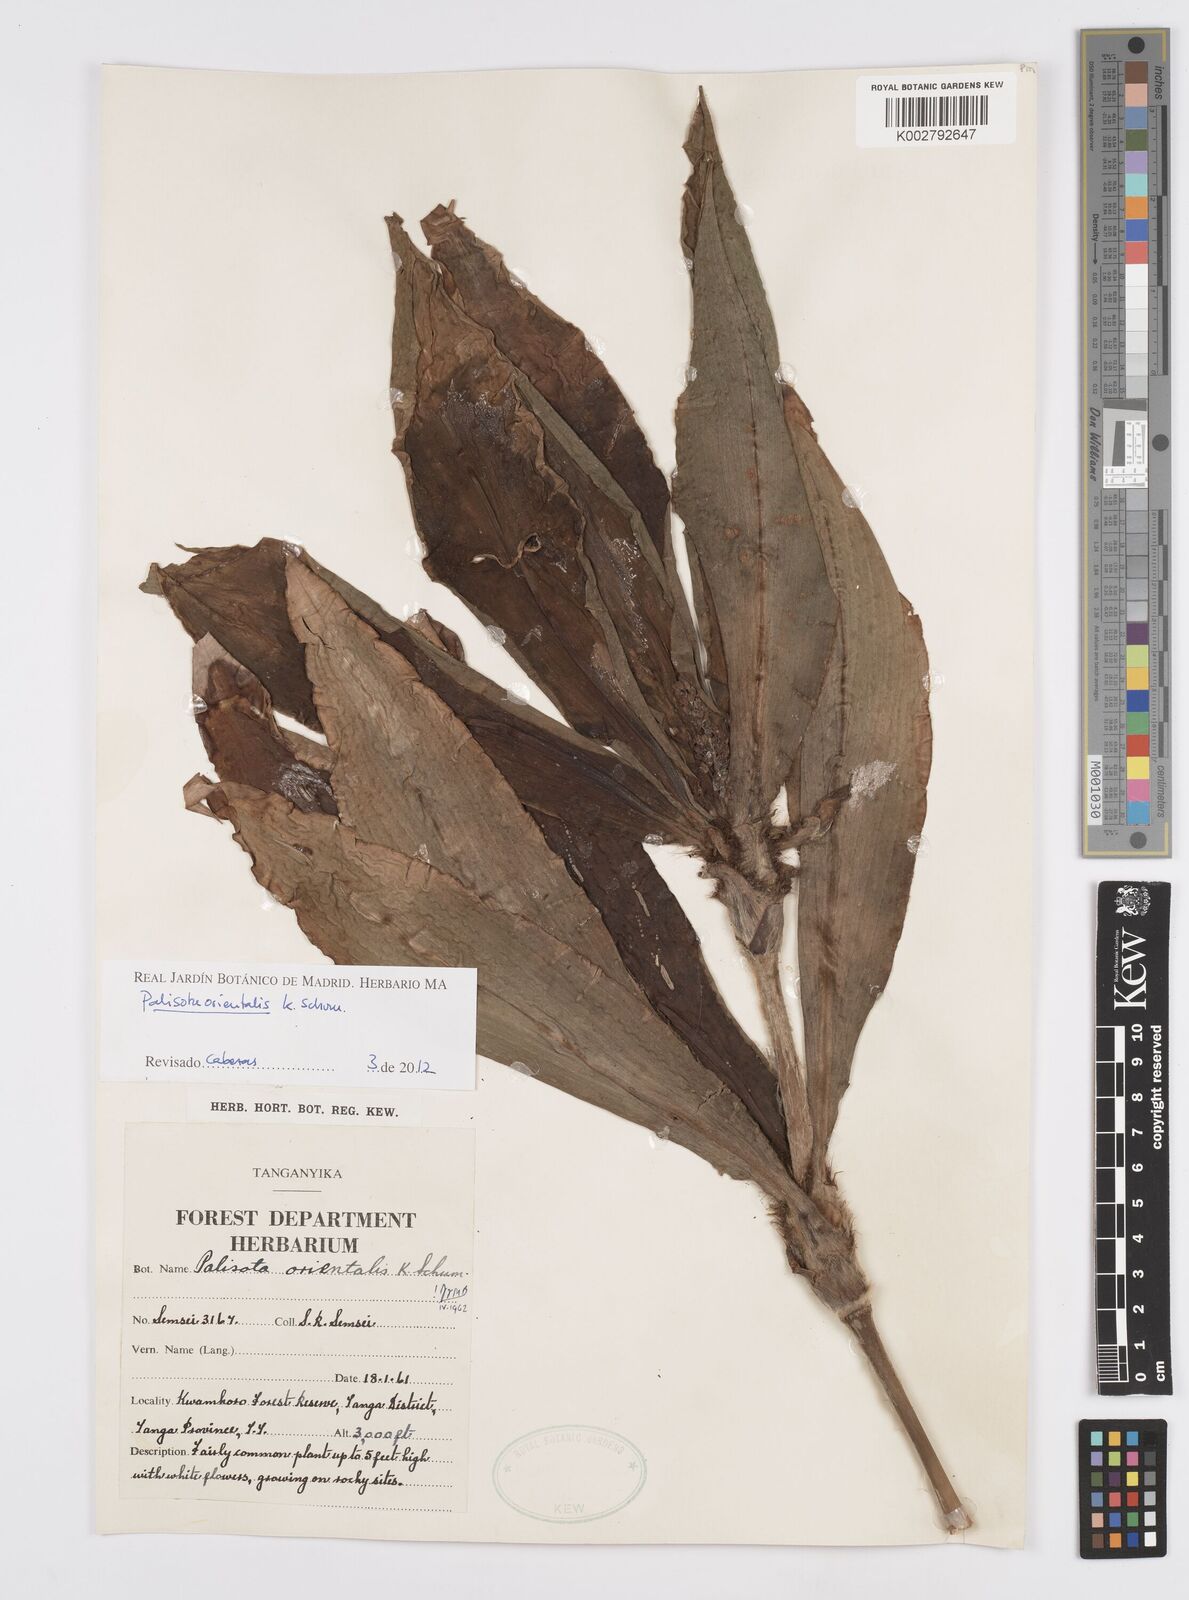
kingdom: Plantae
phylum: Tracheophyta
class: Liliopsida
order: Commelinales
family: Commelinaceae
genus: Palisota
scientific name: Palisota orientalis
